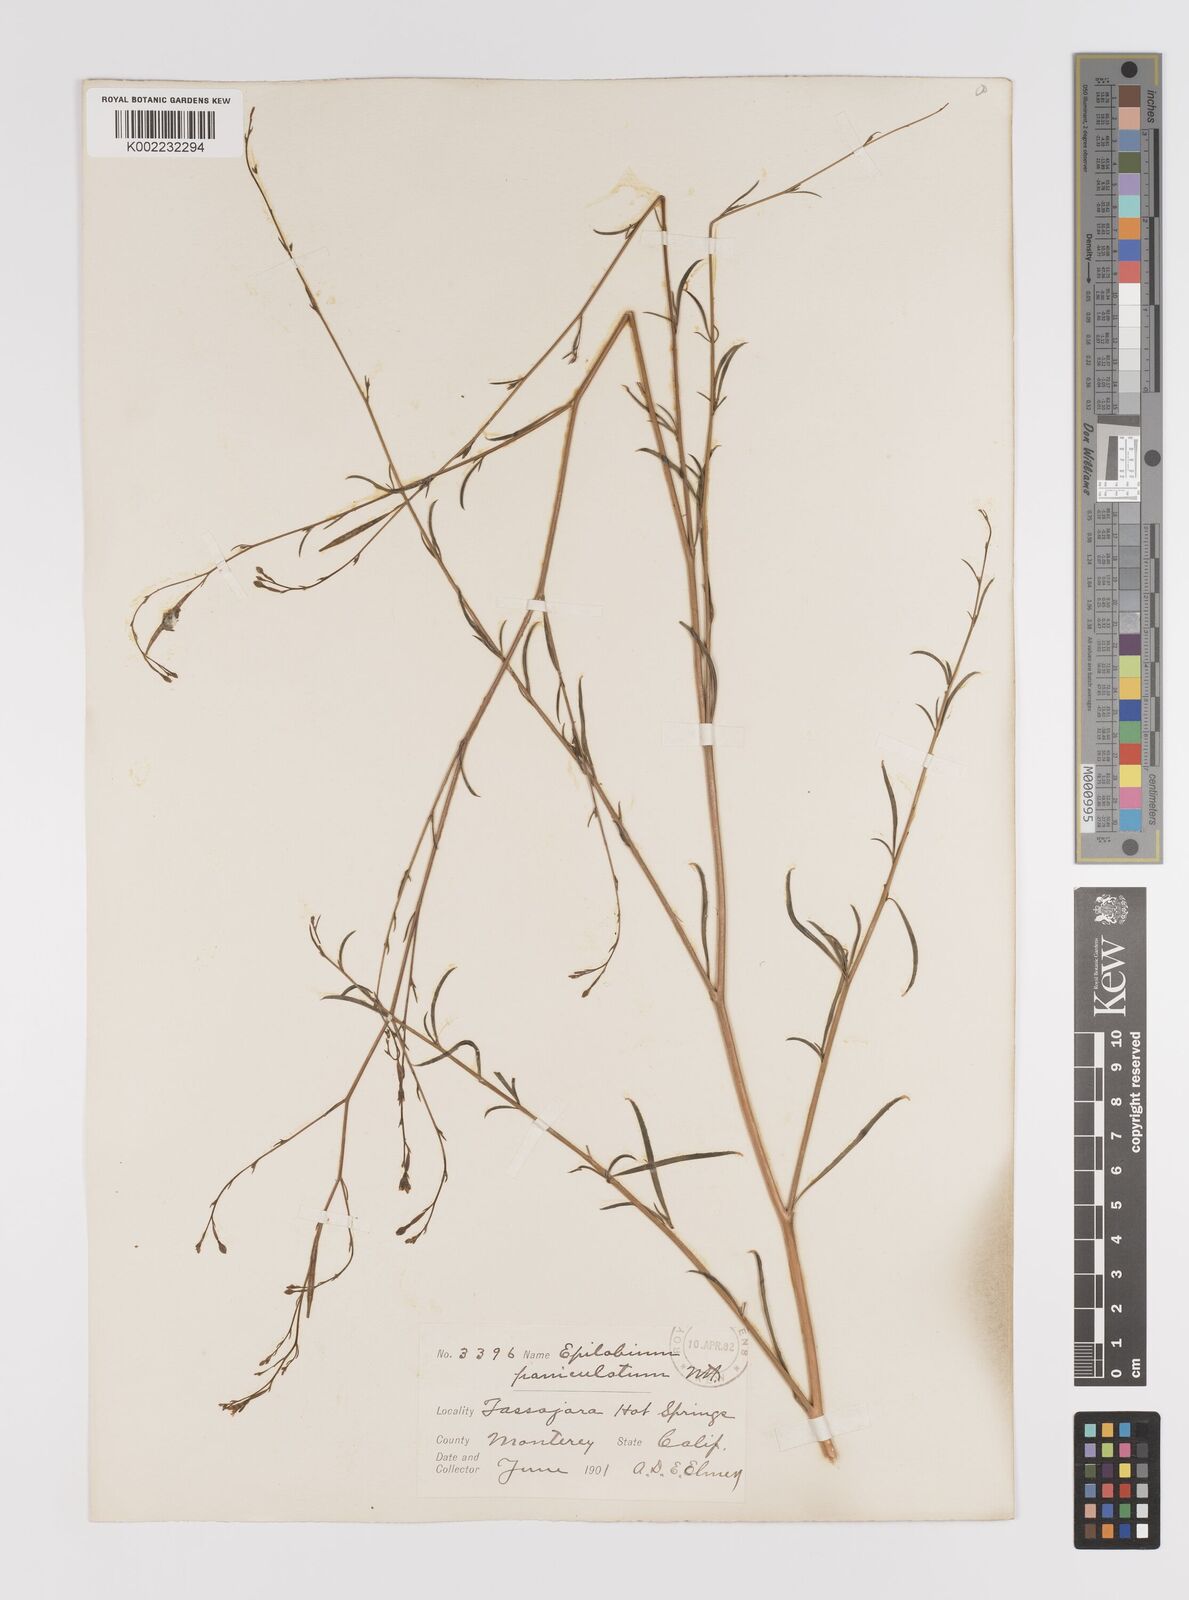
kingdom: Plantae
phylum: Tracheophyta
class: Magnoliopsida
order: Myrtales
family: Onagraceae
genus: Epilobium
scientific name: Epilobium
